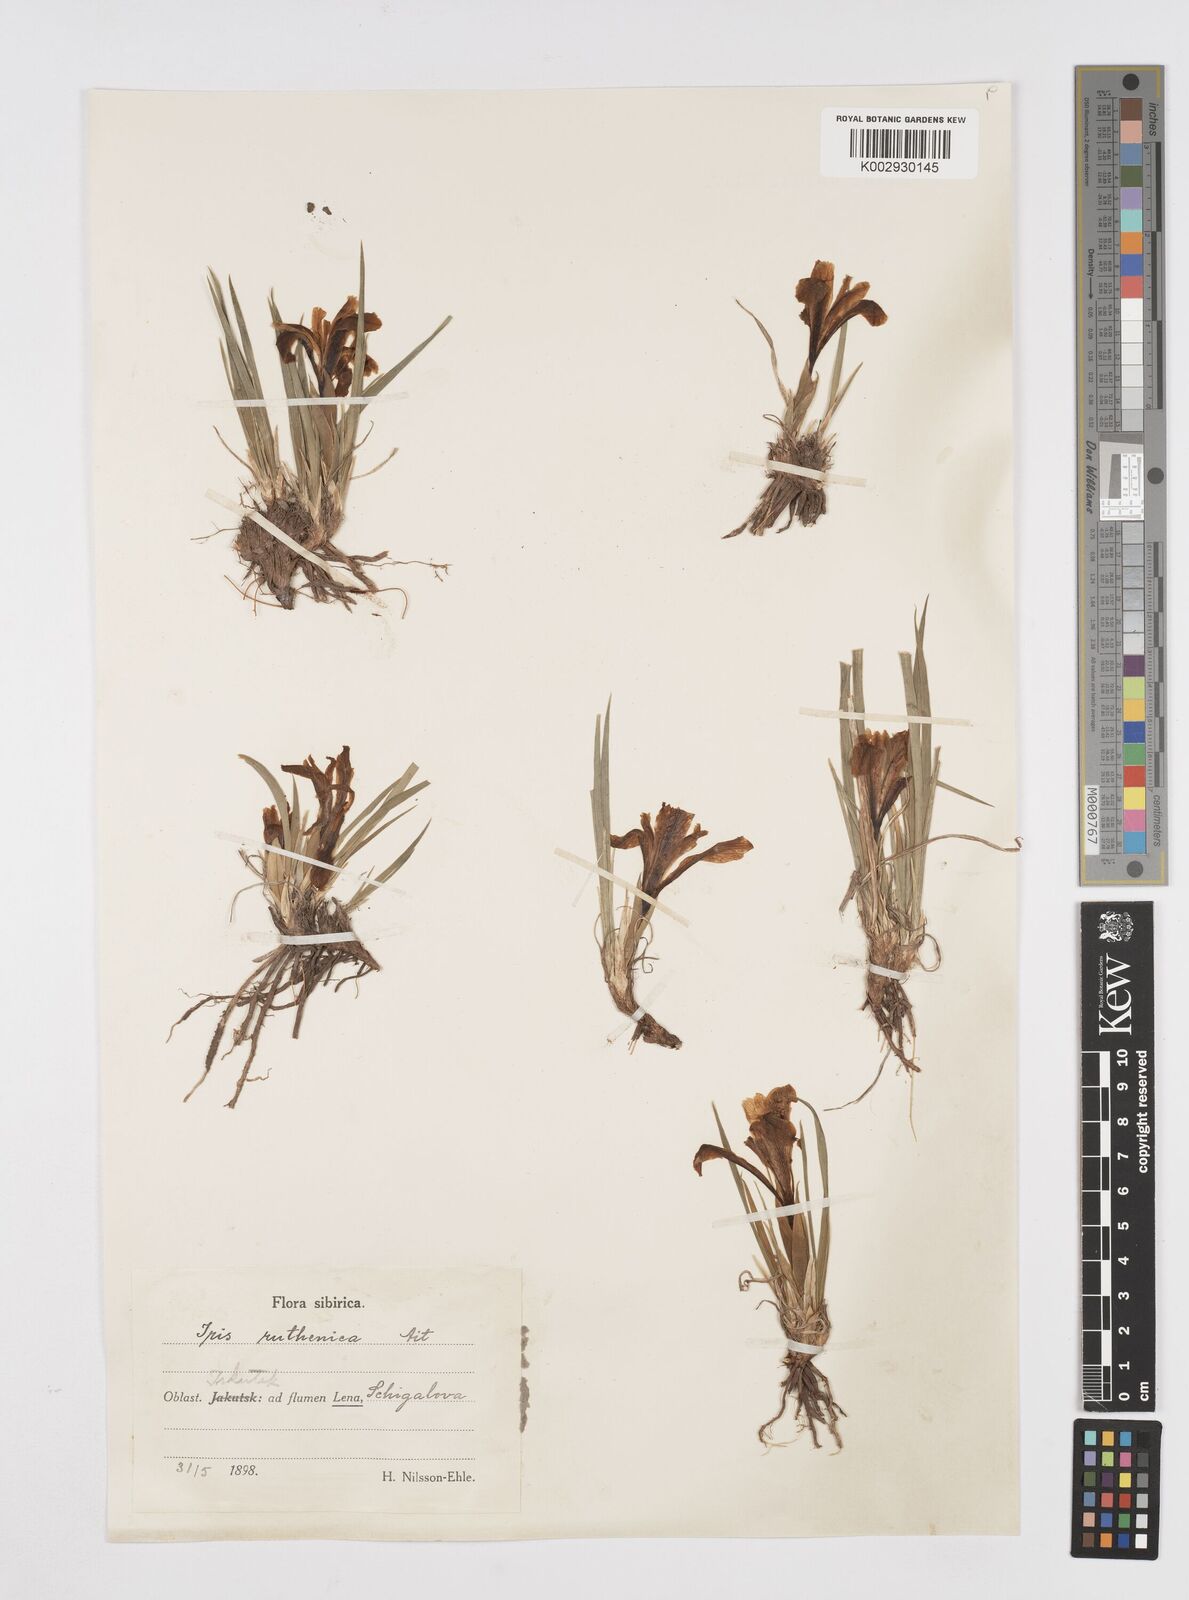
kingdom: Plantae
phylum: Tracheophyta
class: Liliopsida
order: Asparagales
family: Iridaceae
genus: Iris
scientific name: Iris ruthenica
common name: Purple-bract iris
